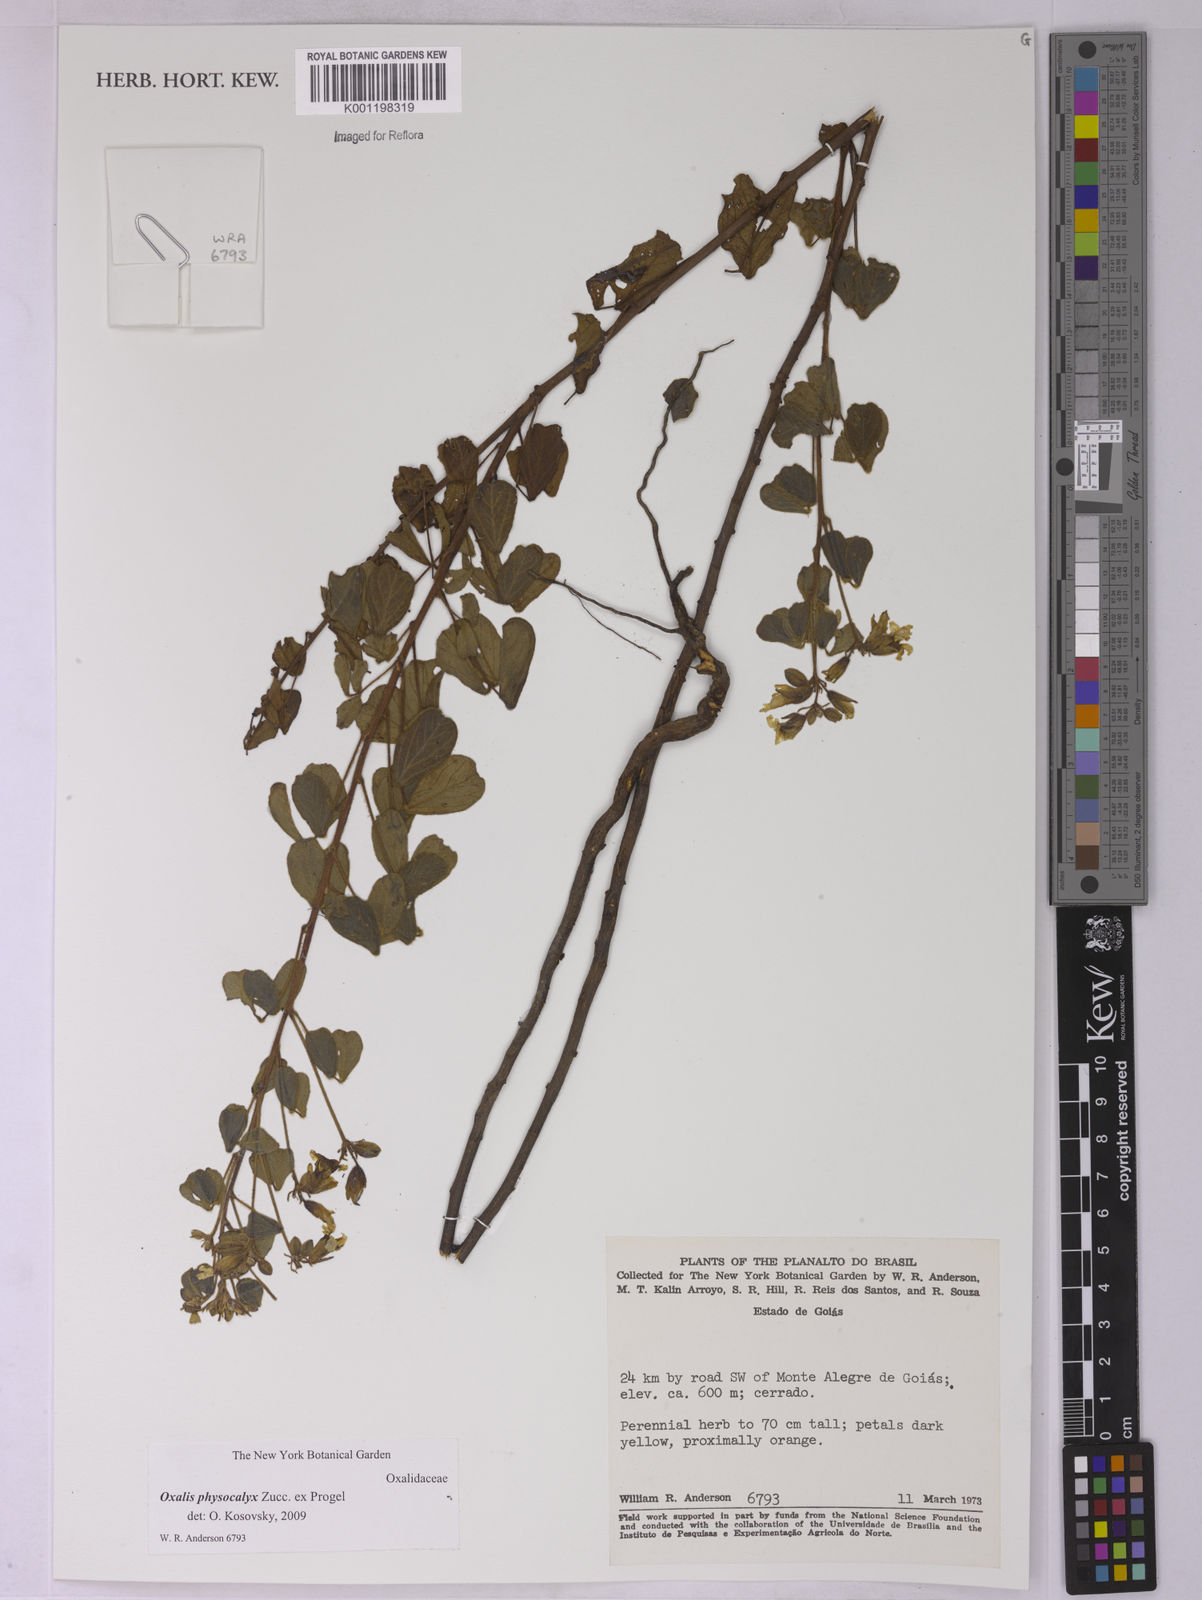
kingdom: Plantae
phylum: Tracheophyta
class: Magnoliopsida
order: Oxalidales
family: Oxalidaceae
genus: Oxalis
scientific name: Oxalis physocalyx
